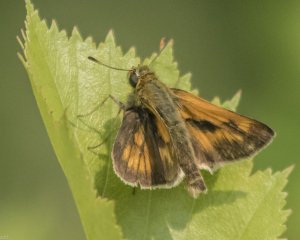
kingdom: Animalia
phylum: Arthropoda
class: Insecta
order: Lepidoptera
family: Hesperiidae
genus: Polites
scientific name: Polites
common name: Long Dash Skipper
